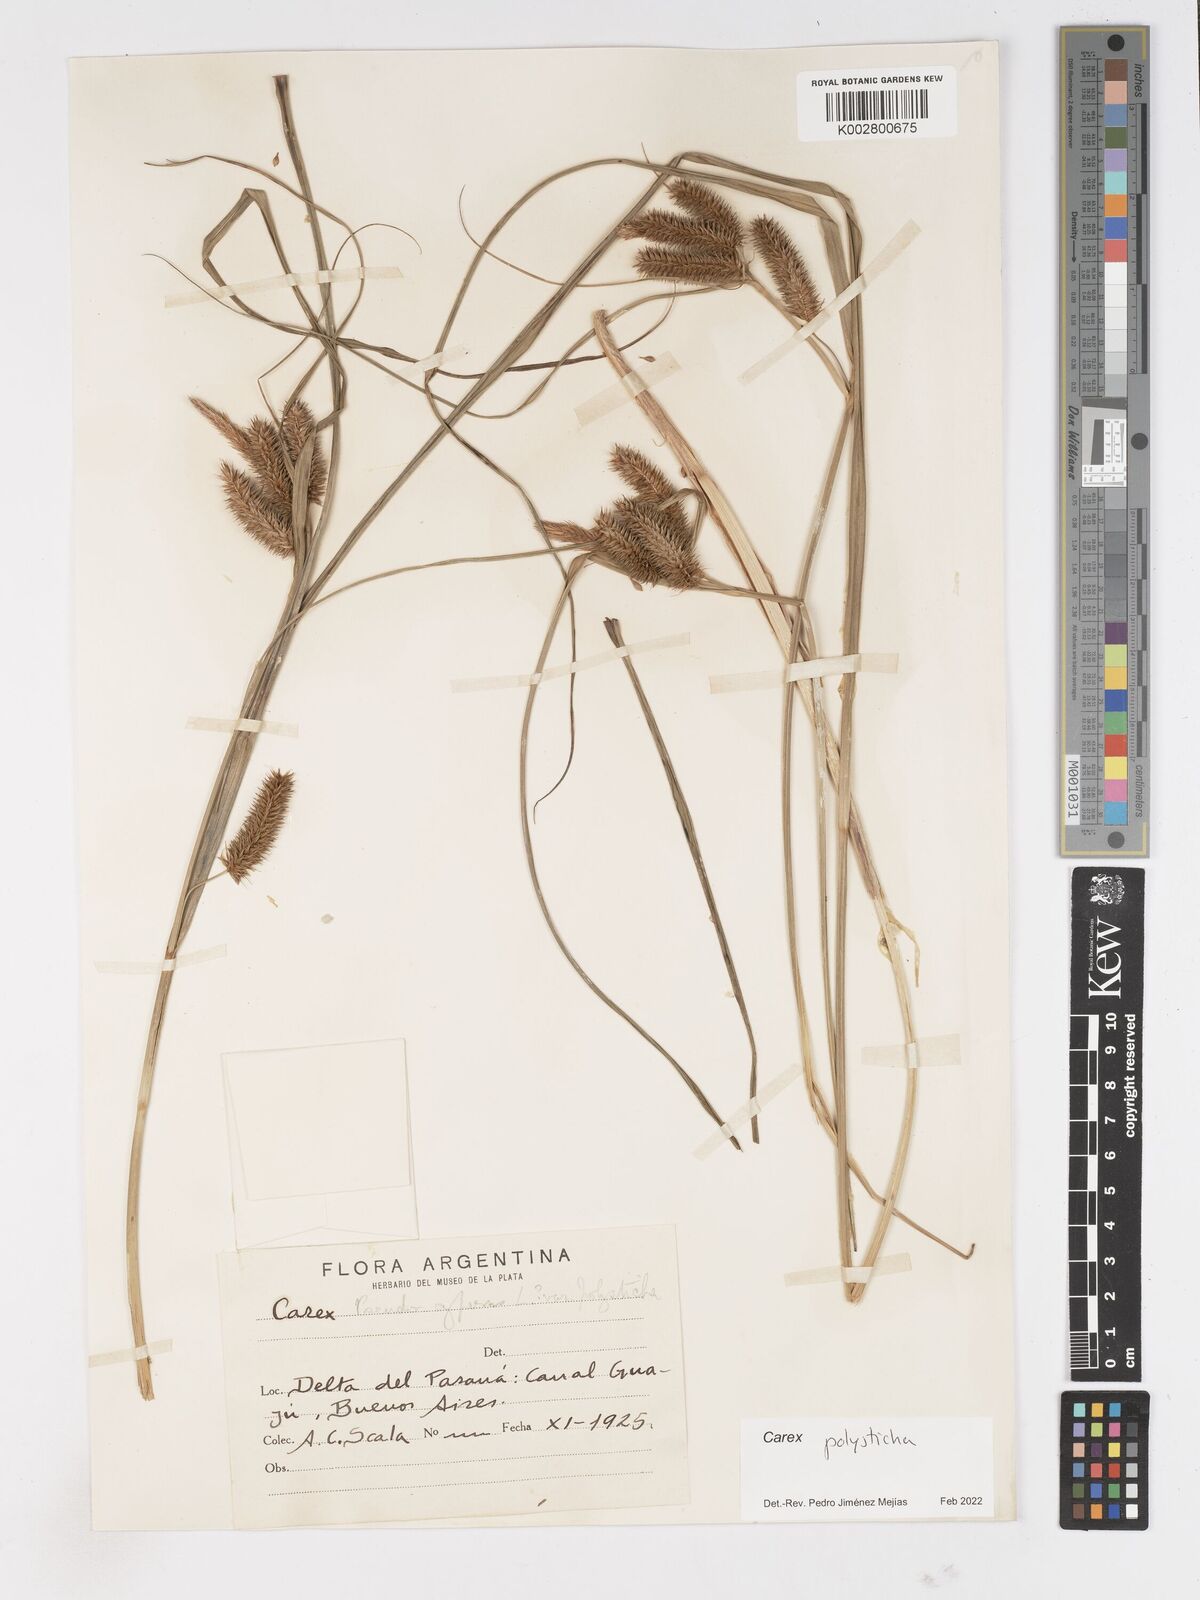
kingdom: Plantae
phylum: Tracheophyta
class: Liliopsida
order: Poales
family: Cyperaceae
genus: Carex
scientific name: Carex polysticha
